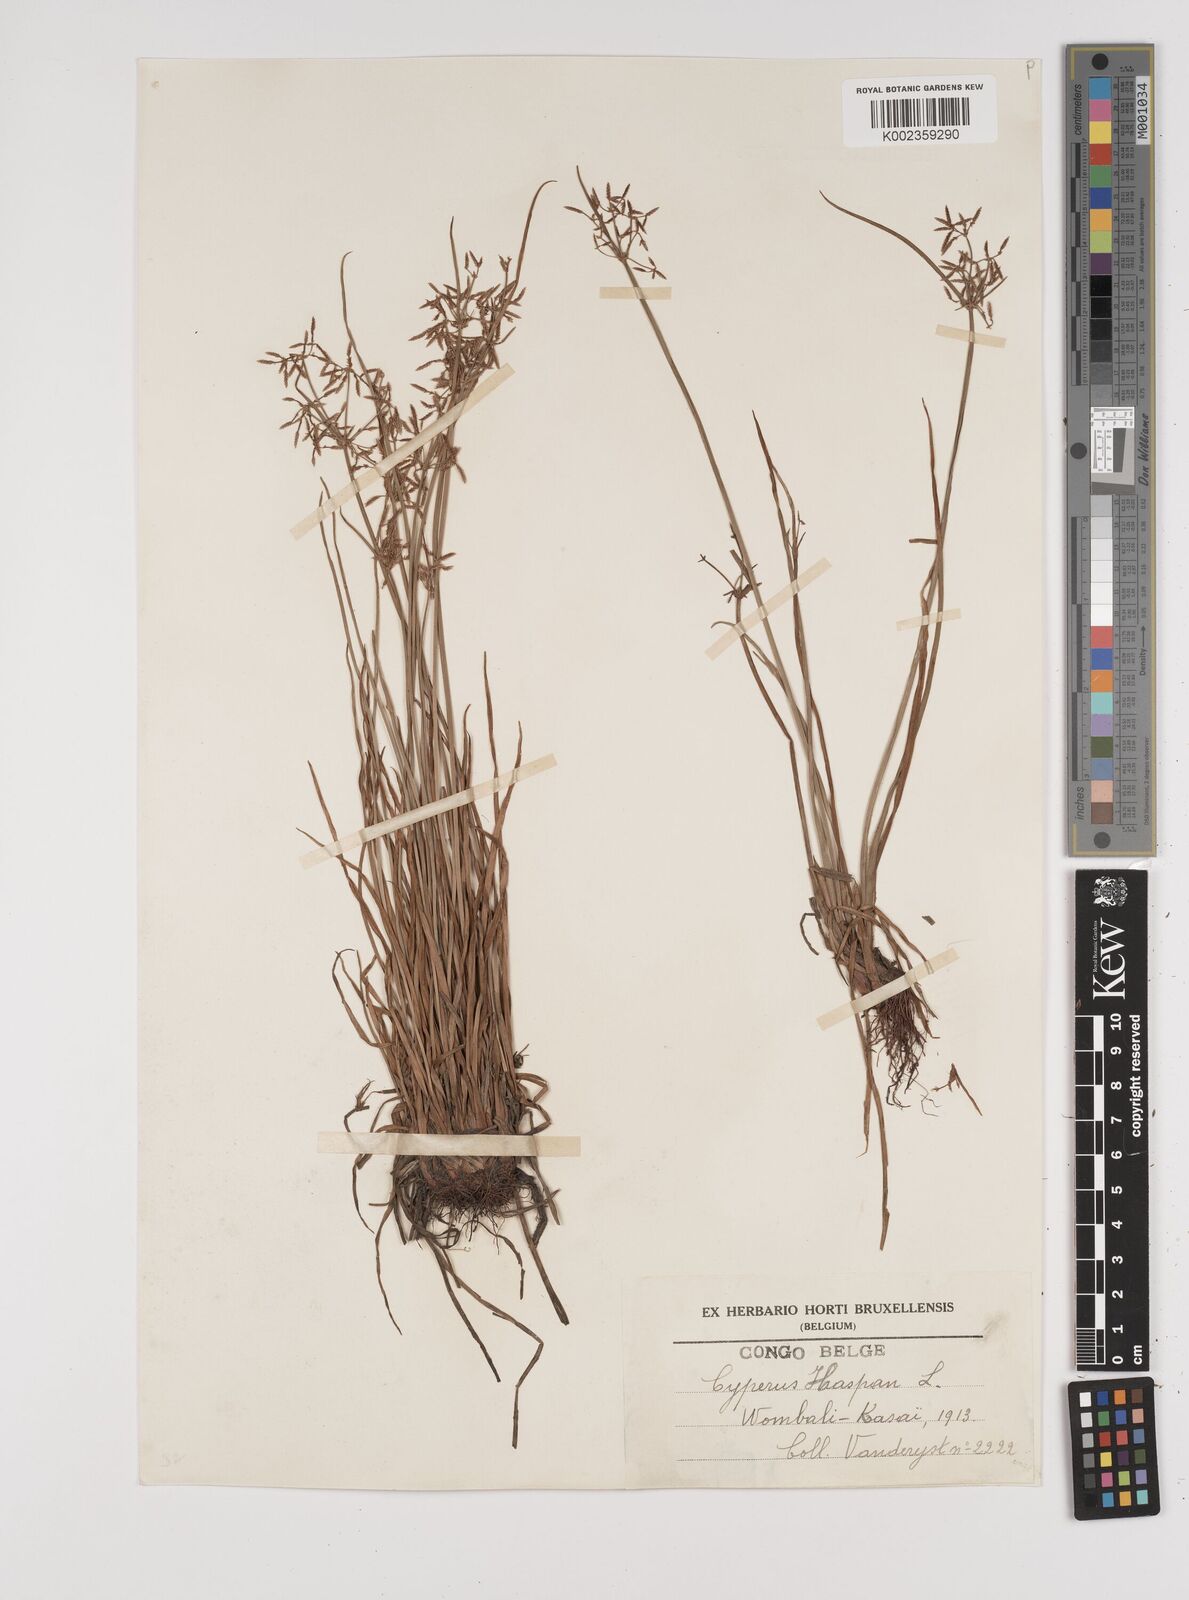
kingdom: Plantae
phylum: Tracheophyta
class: Liliopsida
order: Poales
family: Cyperaceae
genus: Cyperus
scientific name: Cyperus haspan
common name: Haspan flatsedge
